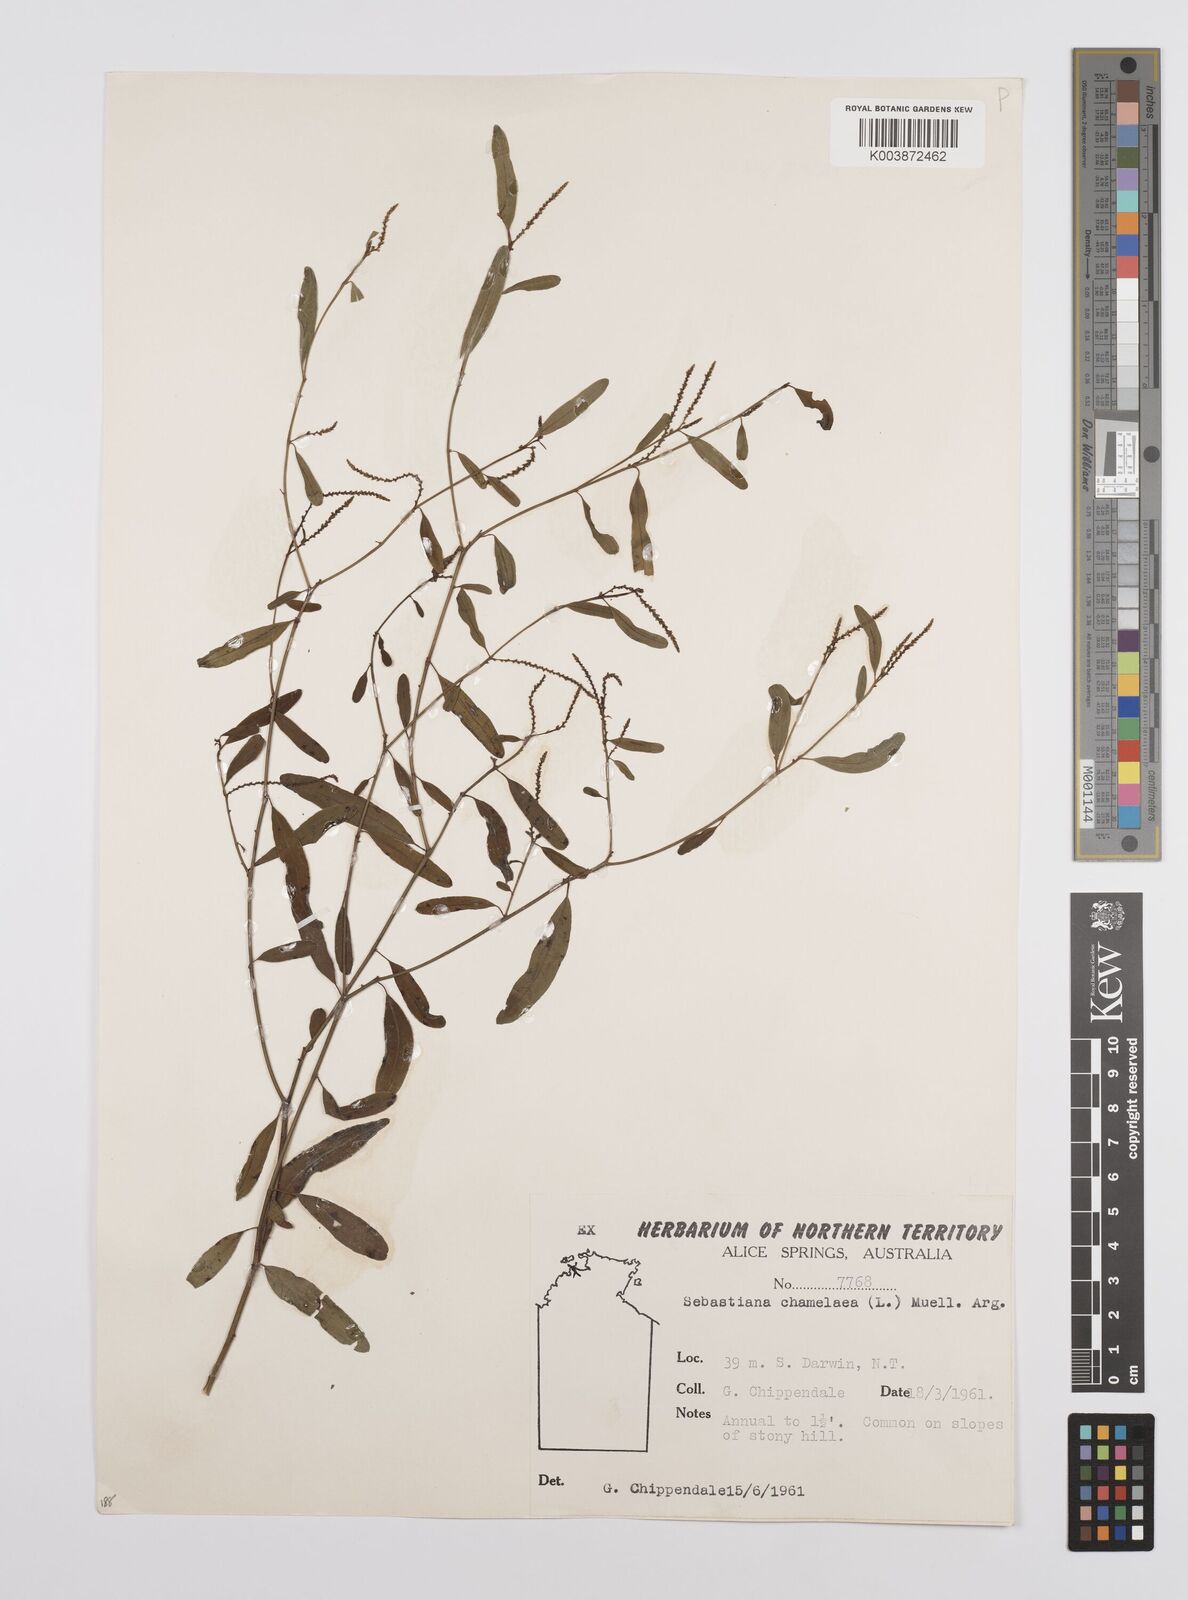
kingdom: Plantae
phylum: Tracheophyta
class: Magnoliopsida
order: Malpighiales
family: Euphorbiaceae
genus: Microstachys
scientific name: Microstachys chamaelea
